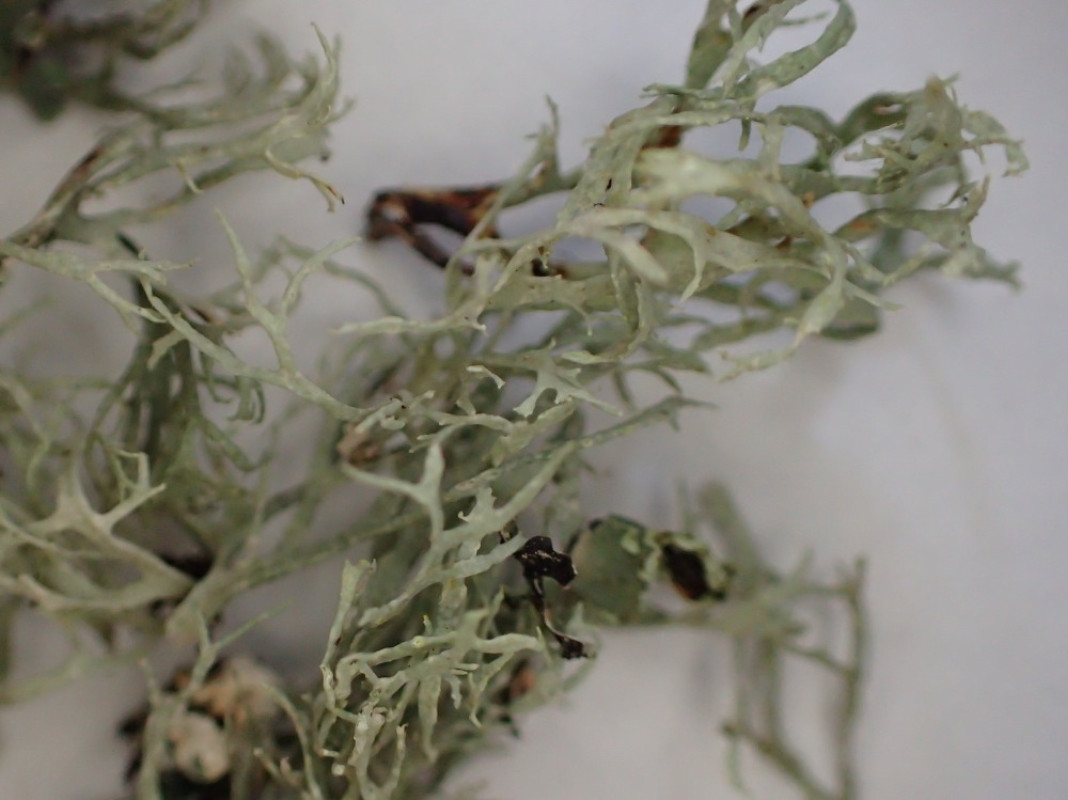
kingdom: Fungi
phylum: Ascomycota
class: Lecanoromycetes
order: Lecanorales
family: Ramalinaceae
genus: Ramalina
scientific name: Ramalina farinacea
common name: melet grenlav
